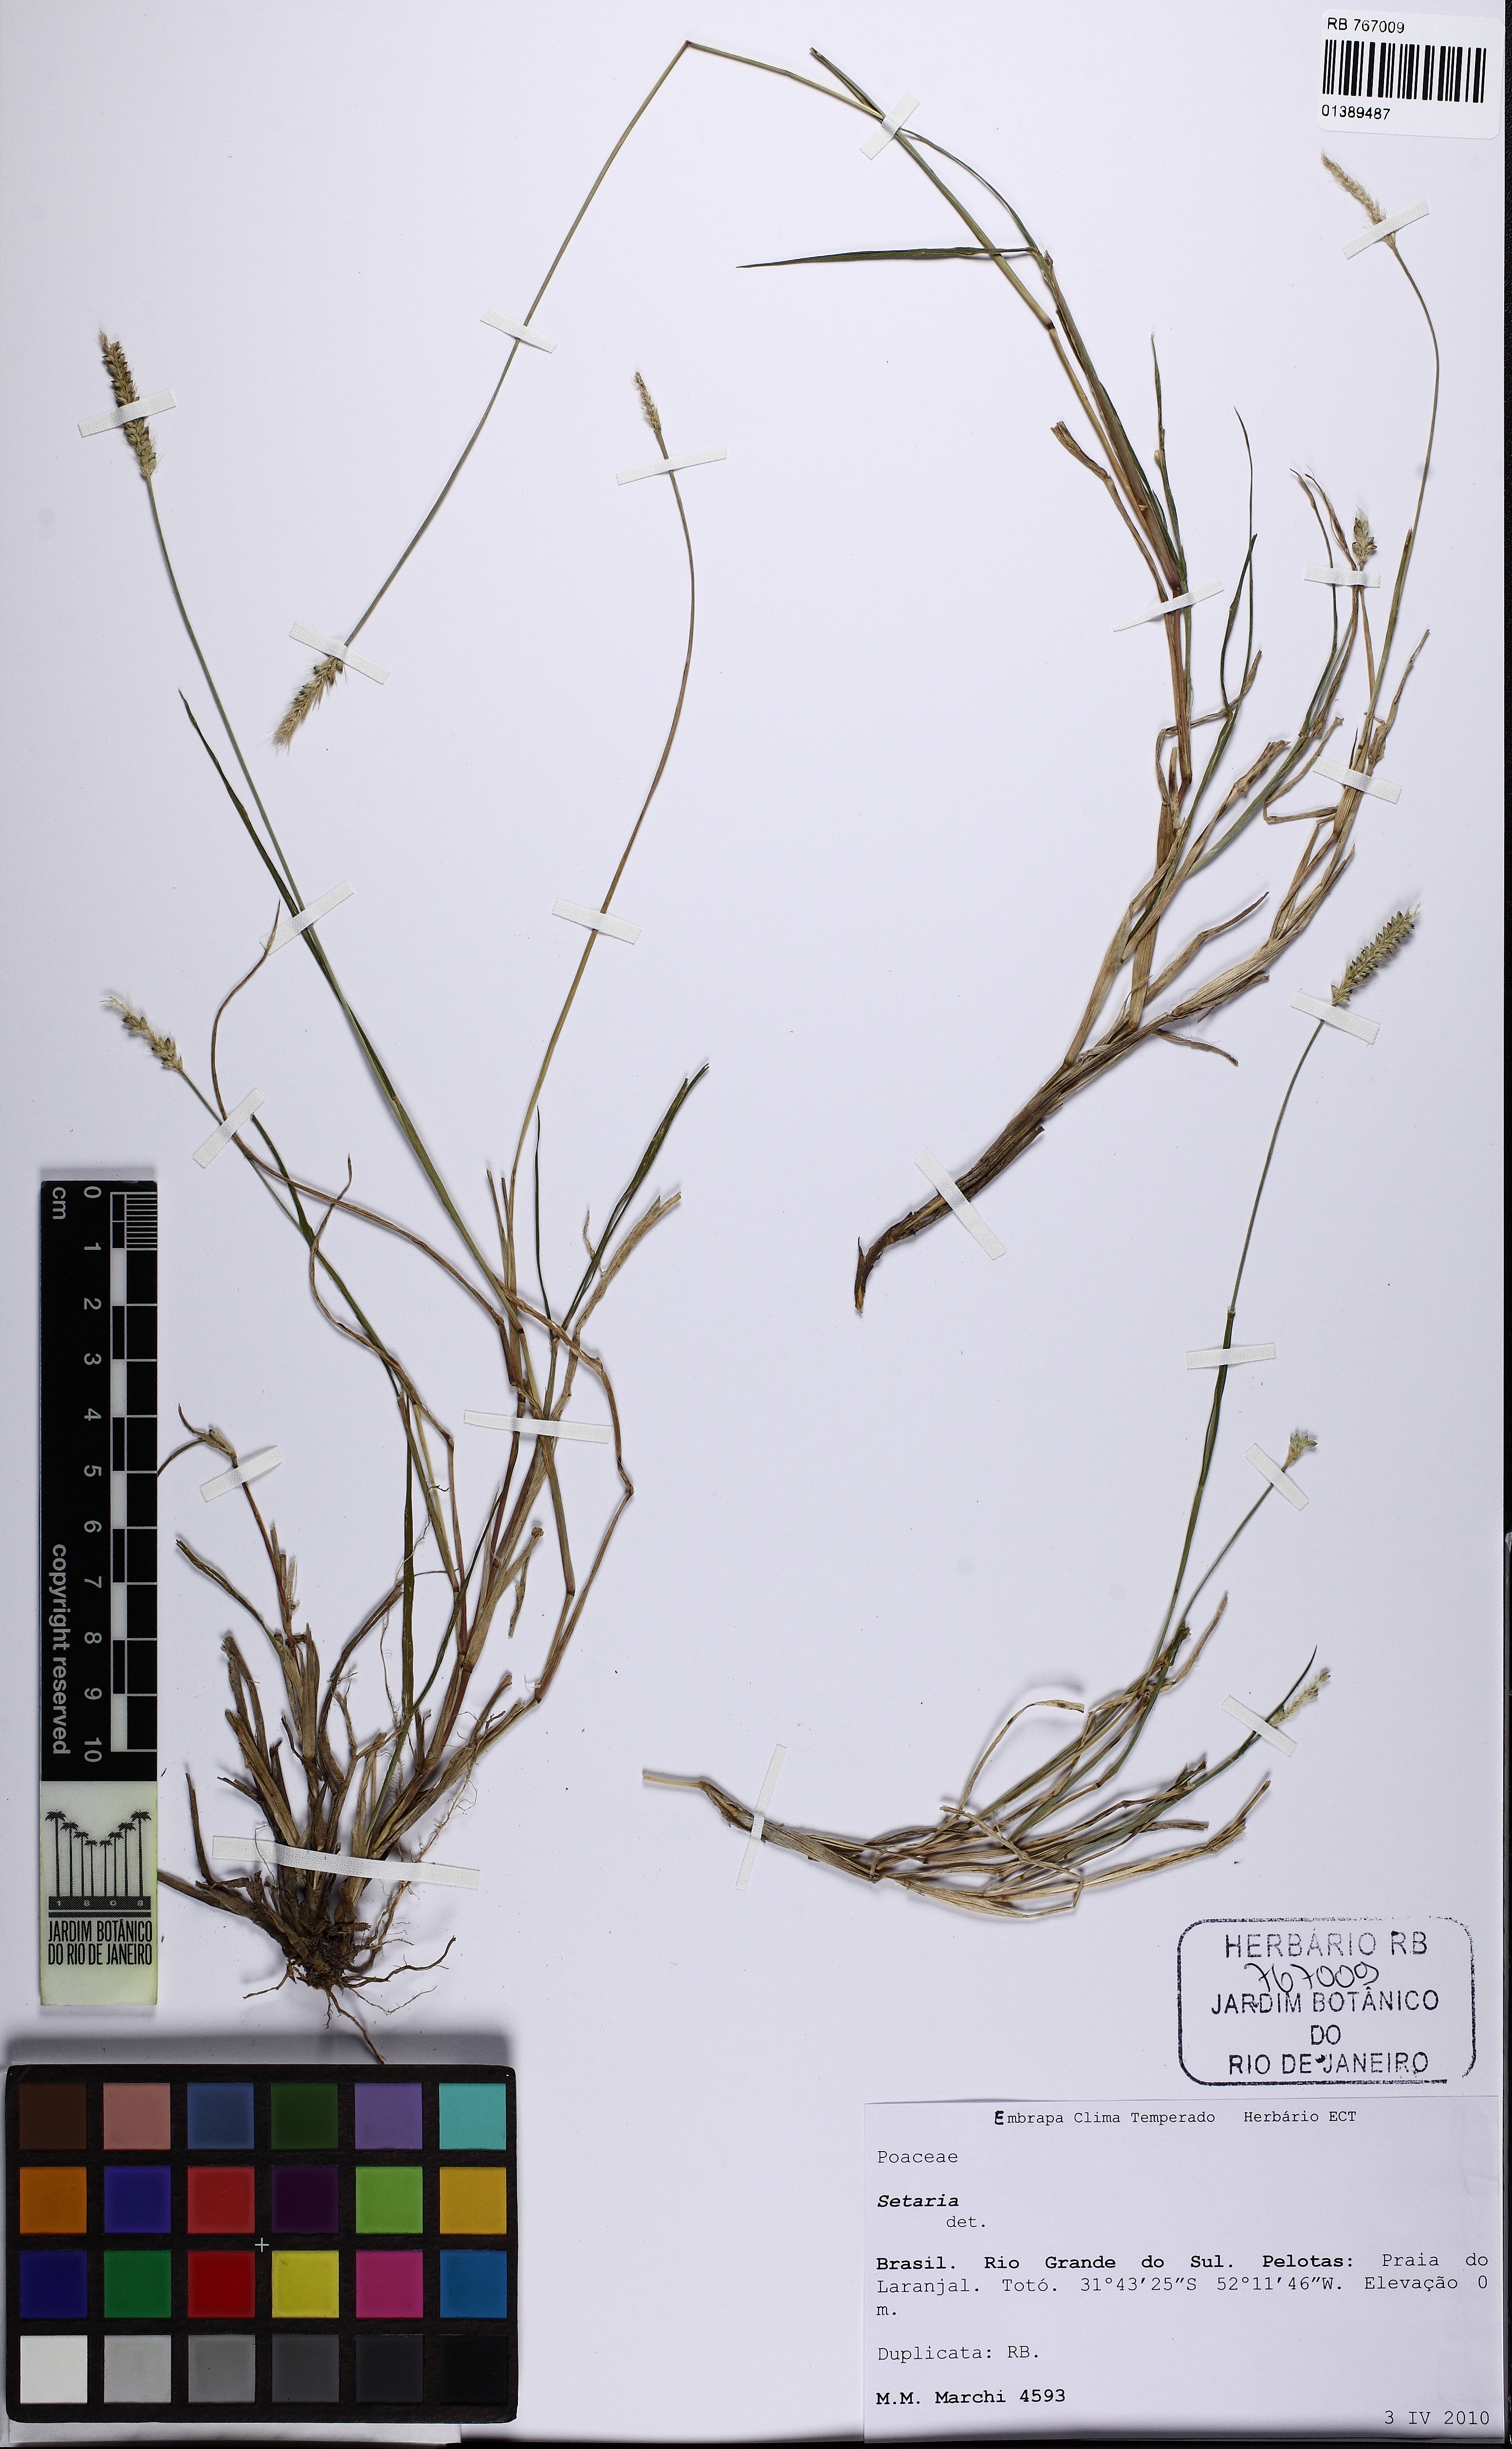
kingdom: Plantae
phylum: Tracheophyta
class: Liliopsida
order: Poales
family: Poaceae
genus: Setaria
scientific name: Setaria
